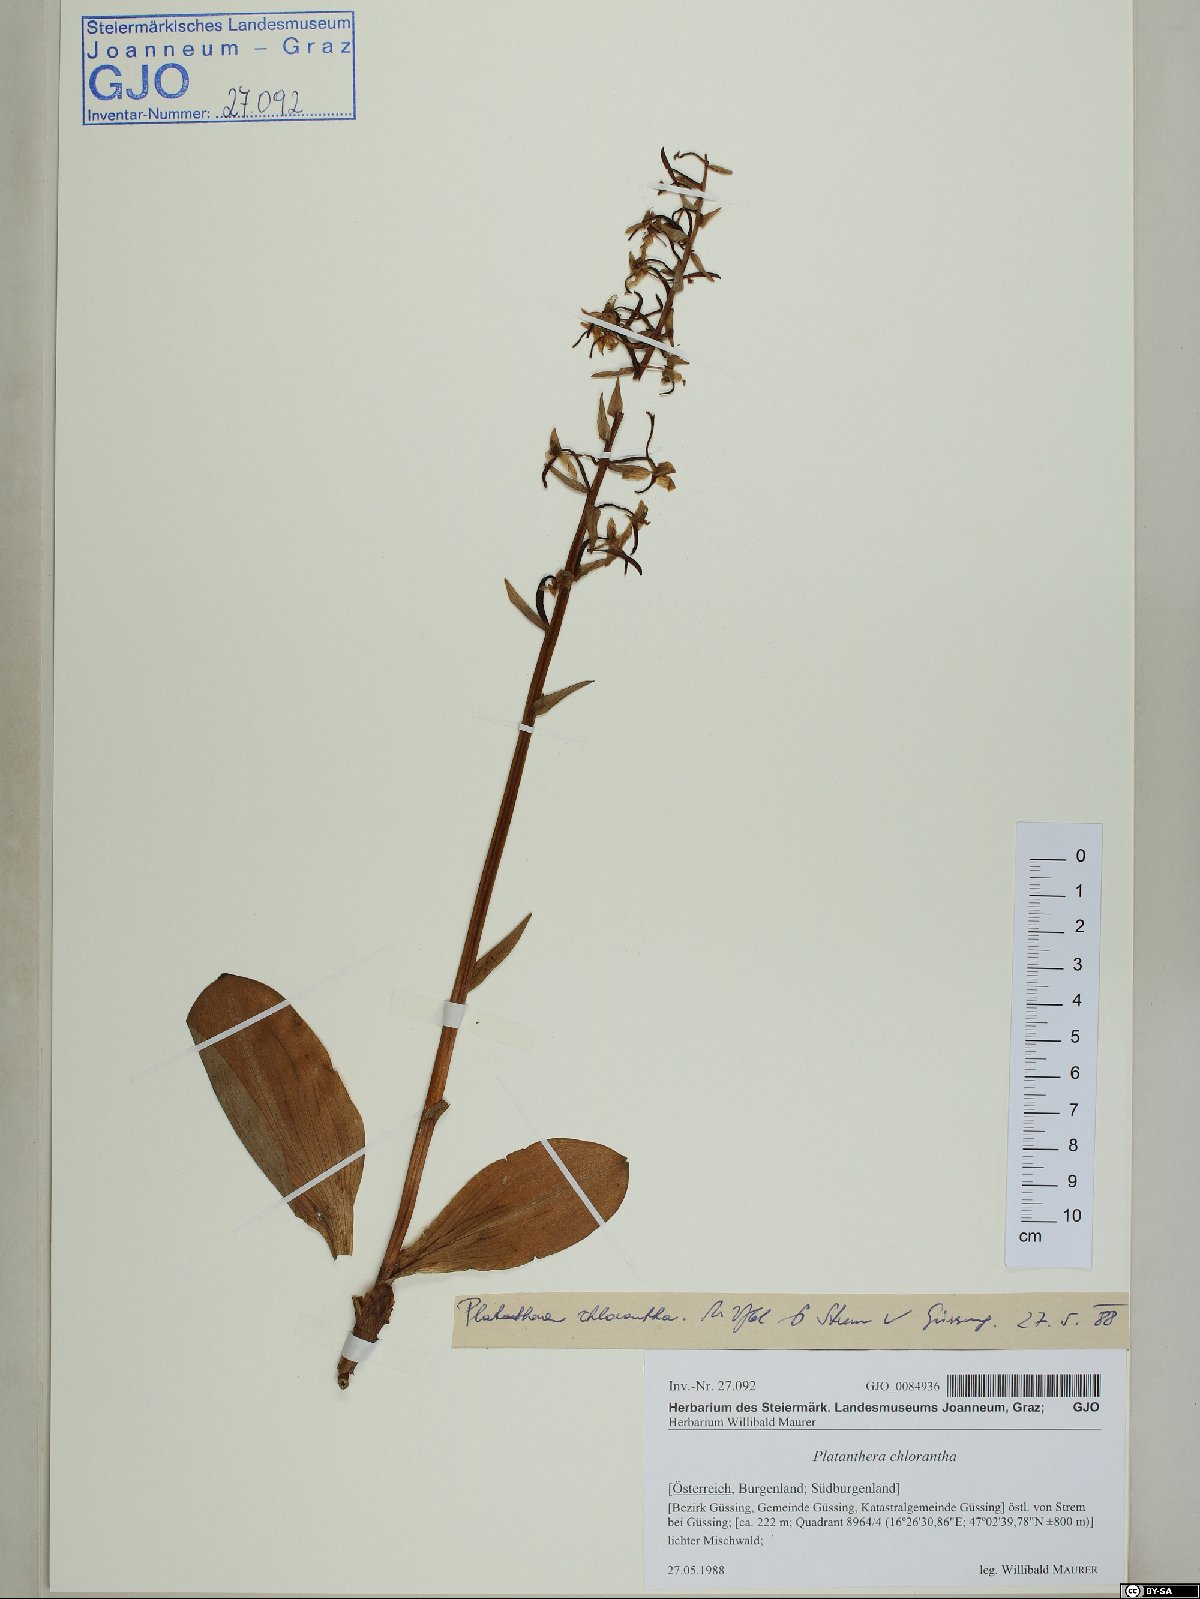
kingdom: Plantae
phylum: Tracheophyta
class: Liliopsida
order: Asparagales
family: Orchidaceae
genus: Platanthera
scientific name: Platanthera chlorantha
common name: Greater butterfly-orchid
